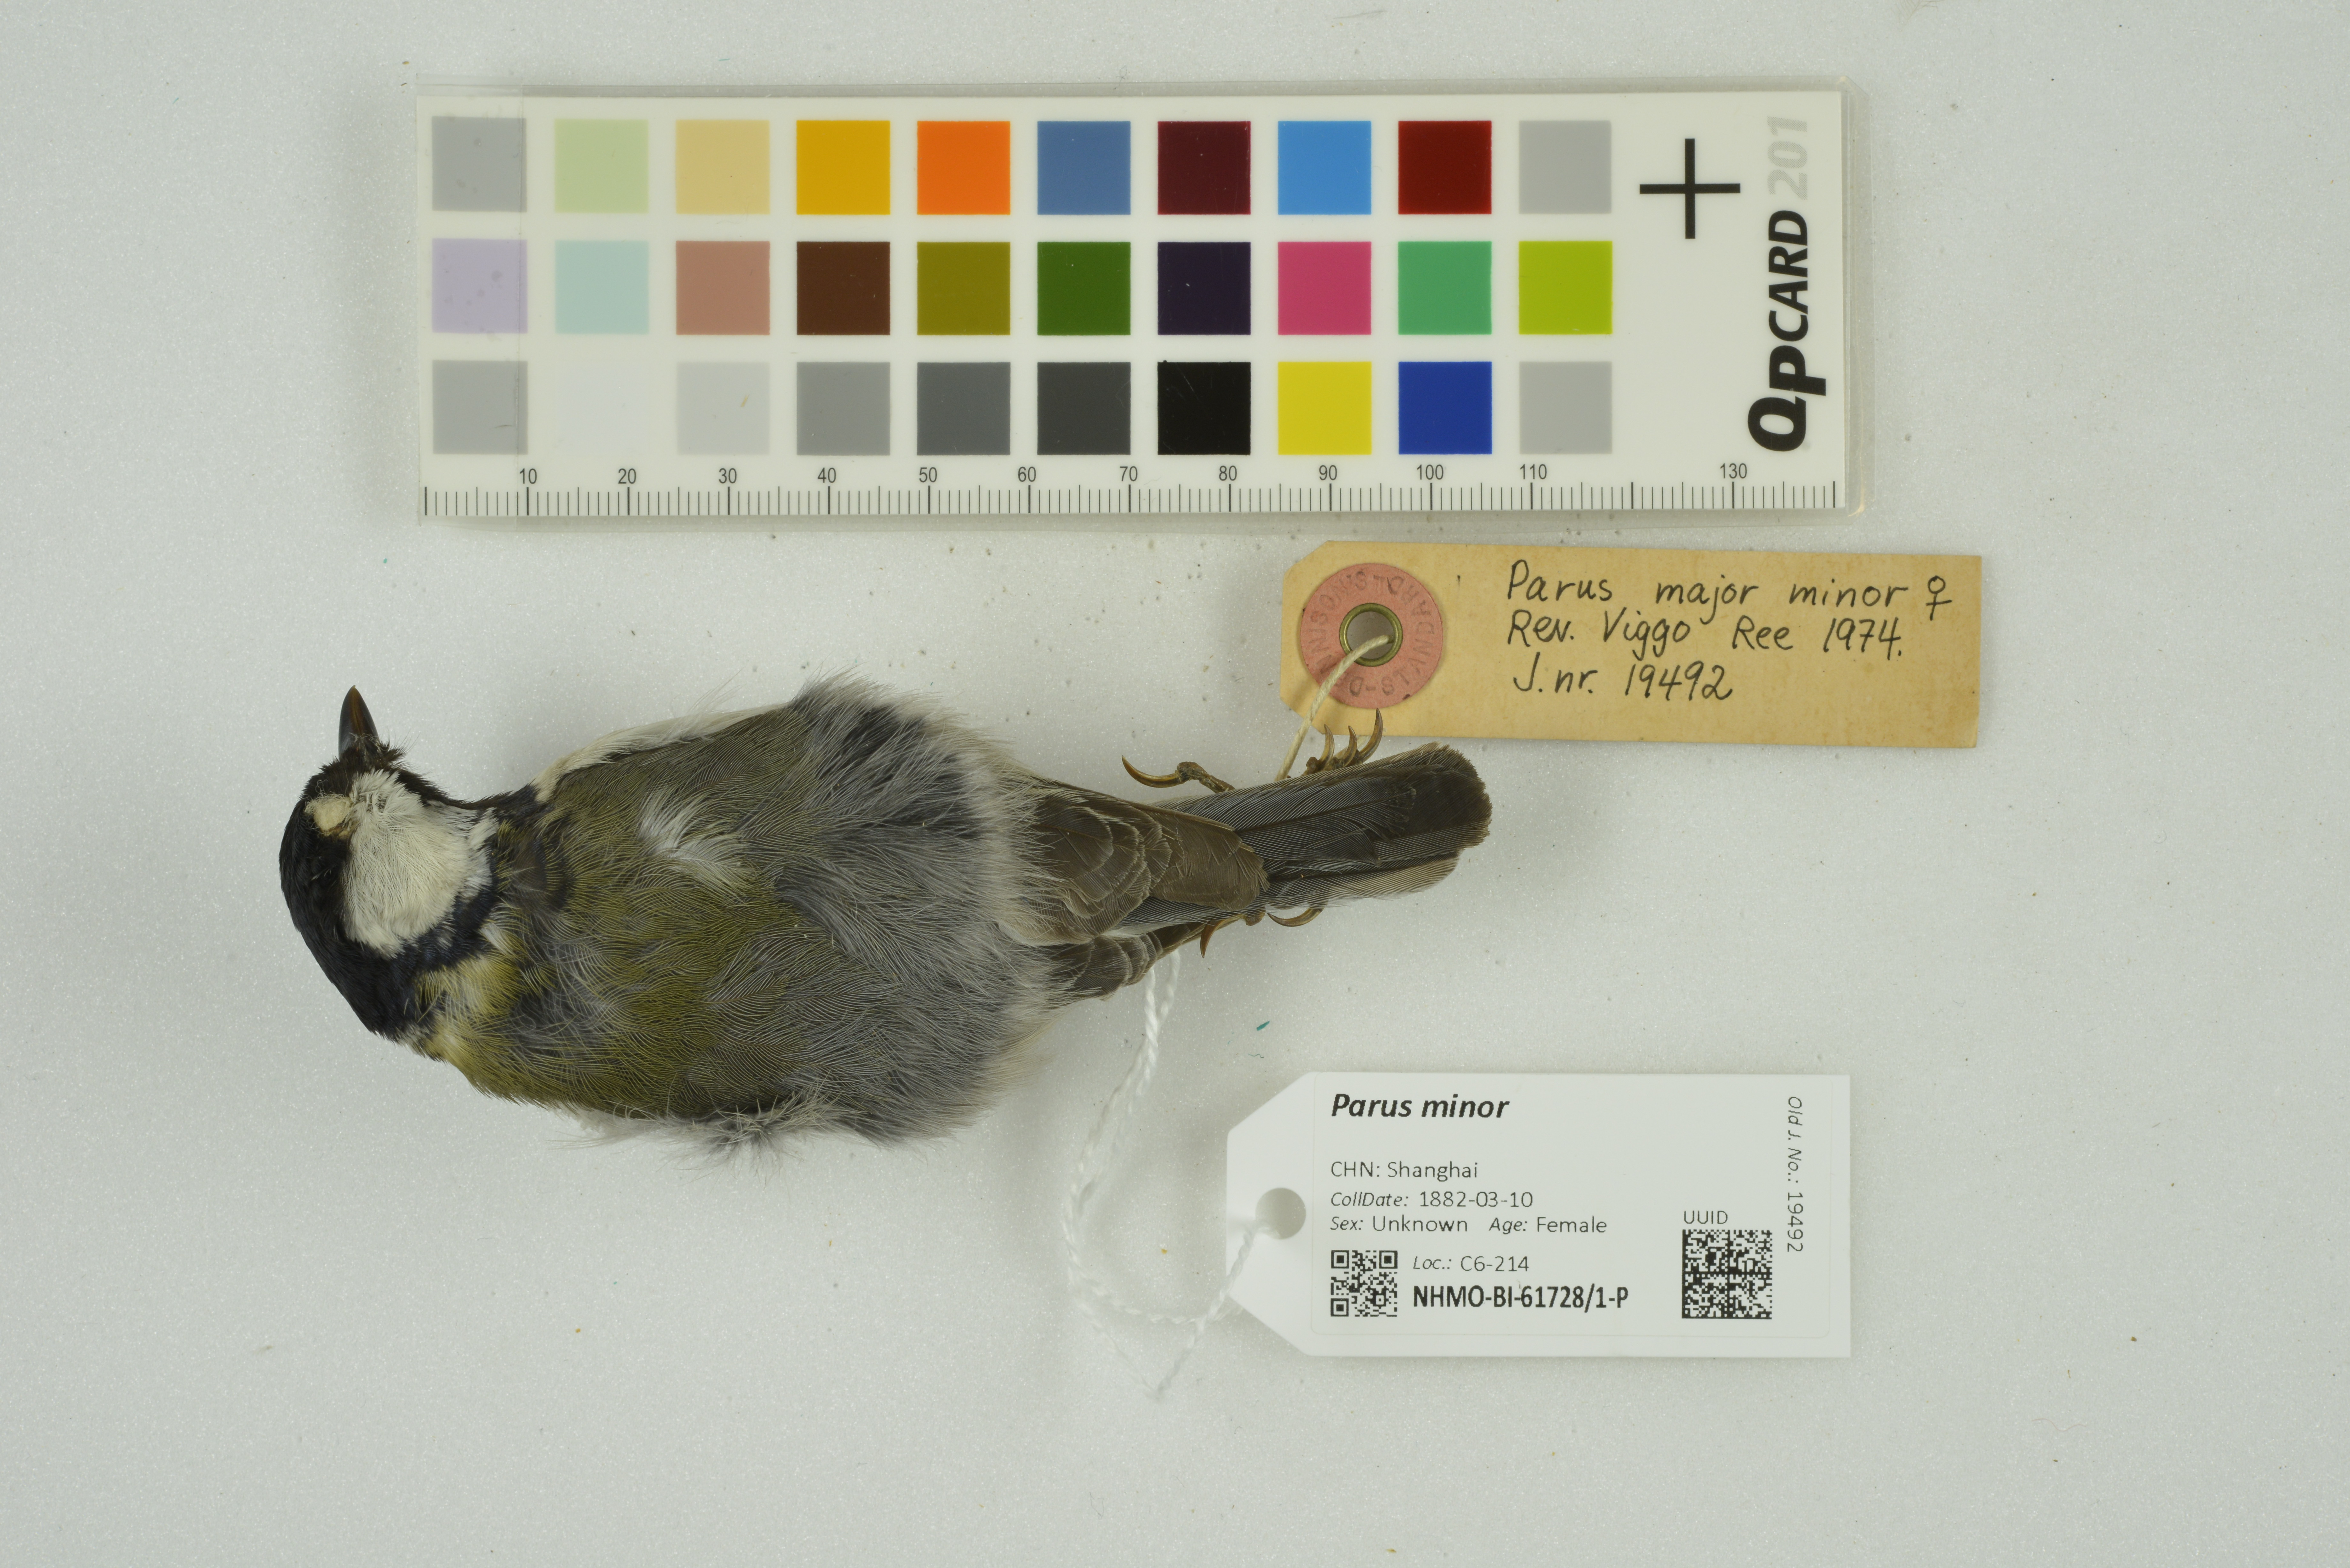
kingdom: Animalia
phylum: Chordata
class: Aves
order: Passeriformes
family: Paridae
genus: Parus
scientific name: Parus minor
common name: Japanese tit
